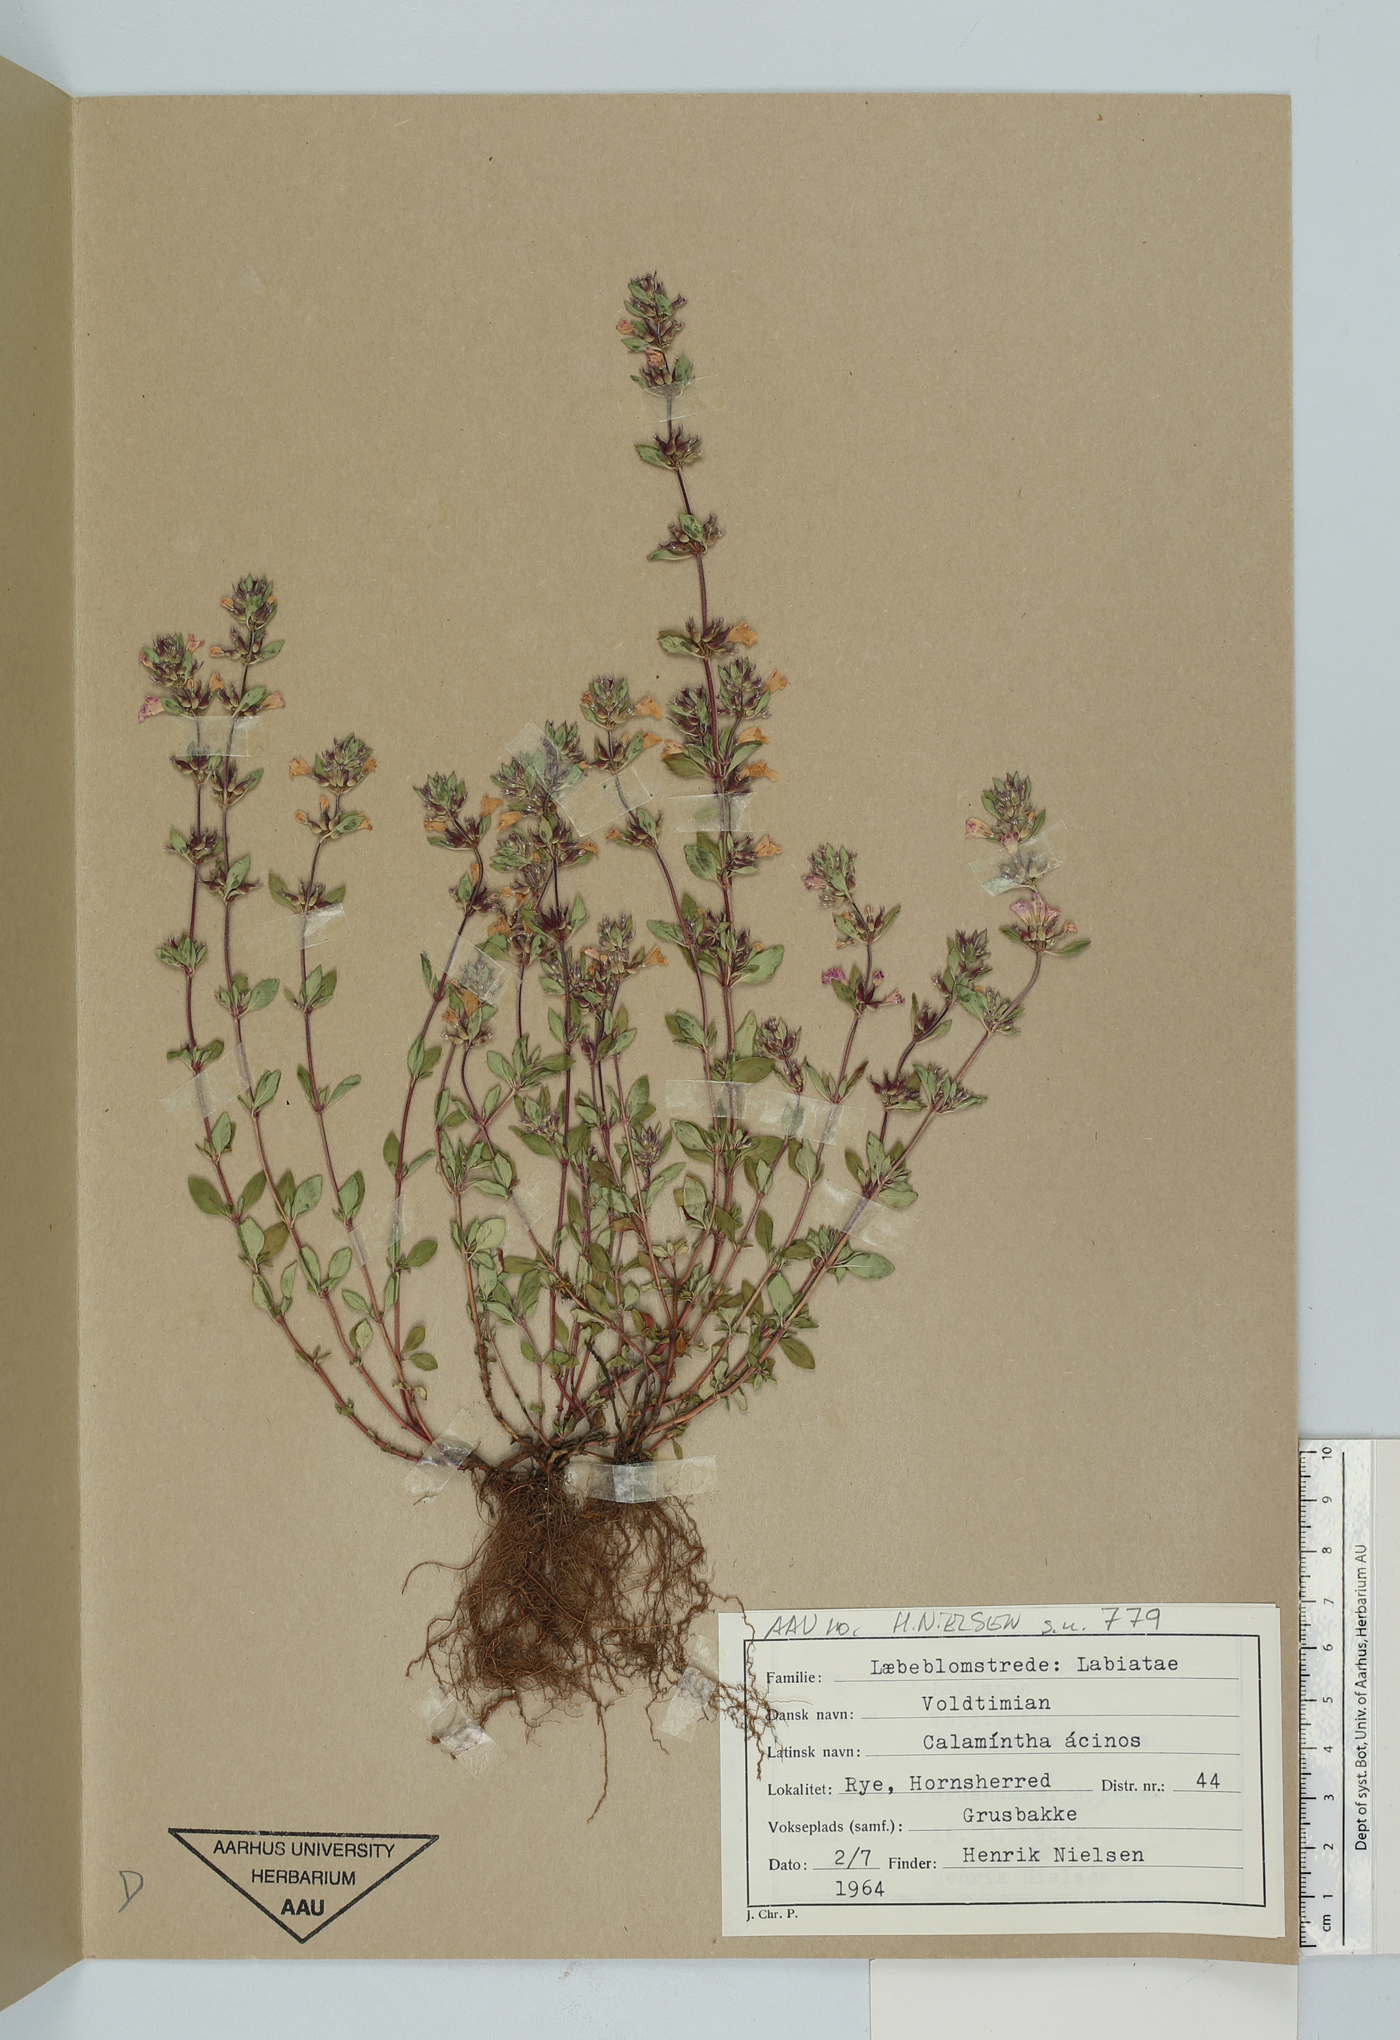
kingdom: Plantae
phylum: Tracheophyta
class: Magnoliopsida
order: Lamiales
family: Lamiaceae
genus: Clinopodium
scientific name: Clinopodium acinos
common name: Basil thyme
